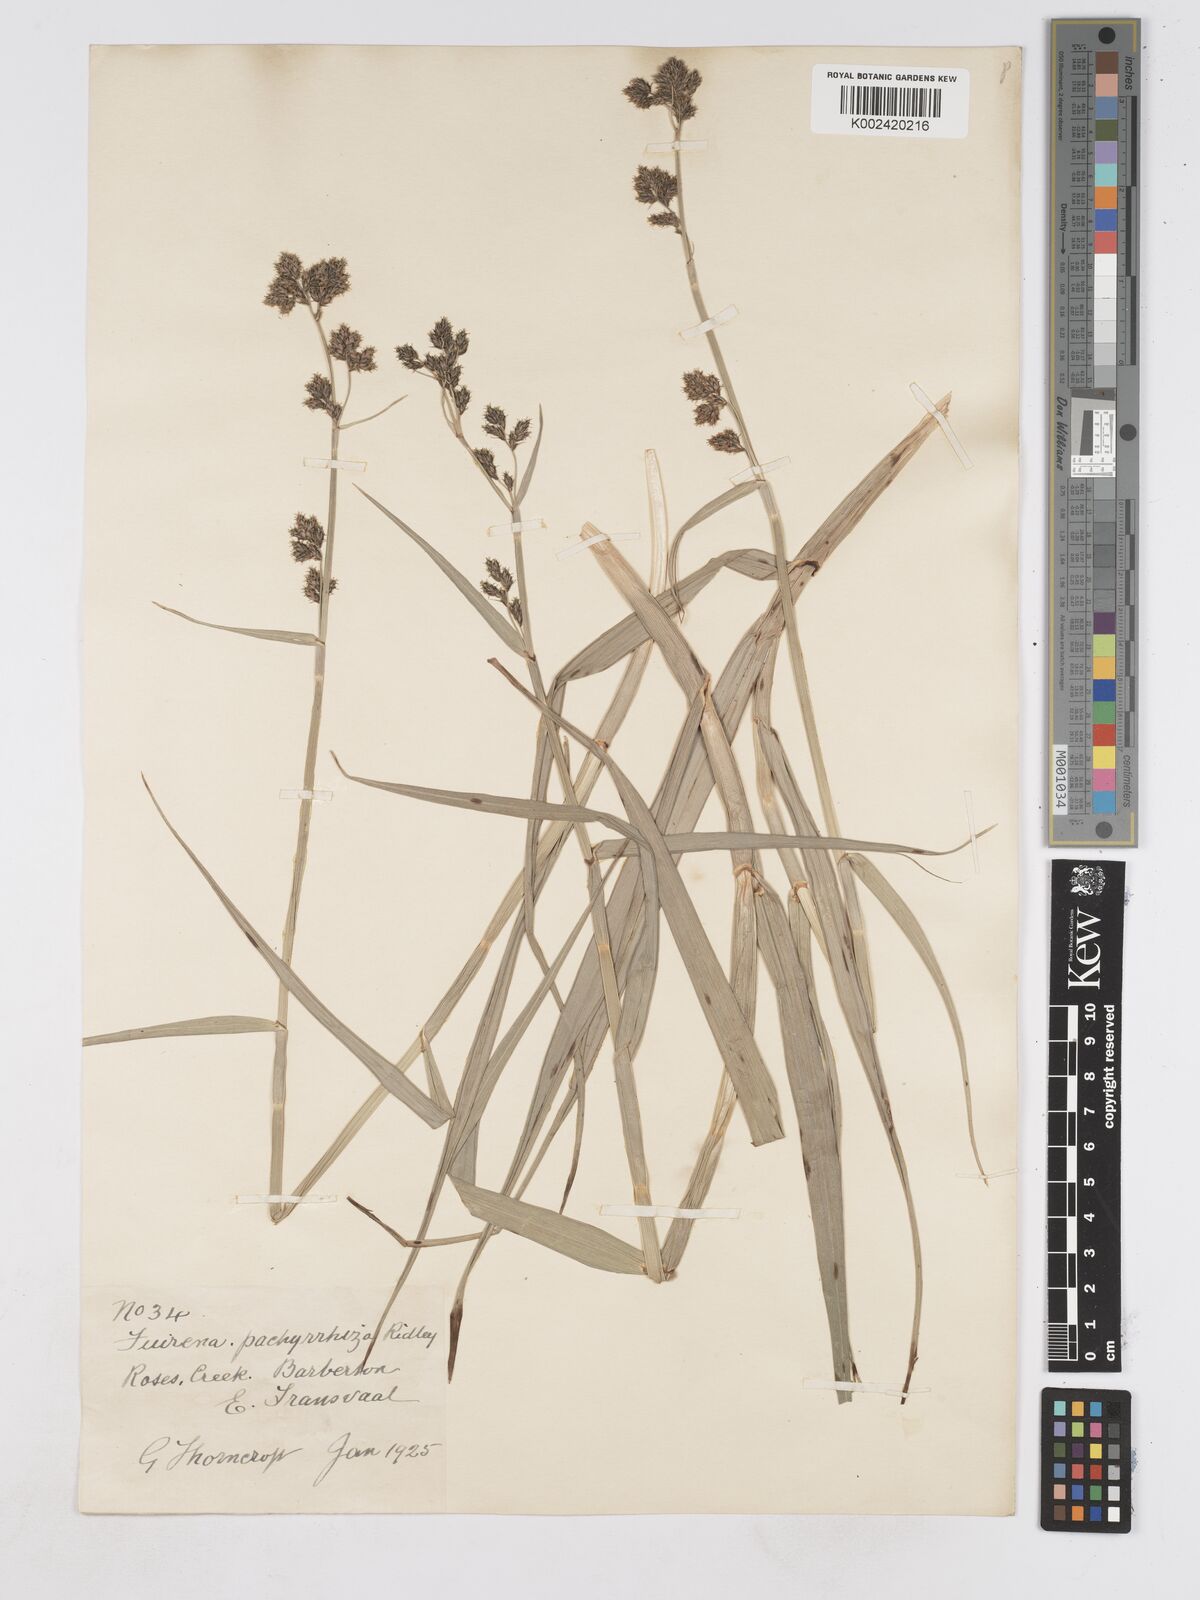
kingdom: Plantae
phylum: Tracheophyta
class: Liliopsida
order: Poales
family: Cyperaceae
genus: Fuirena
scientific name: Fuirena pachyrrhiza
